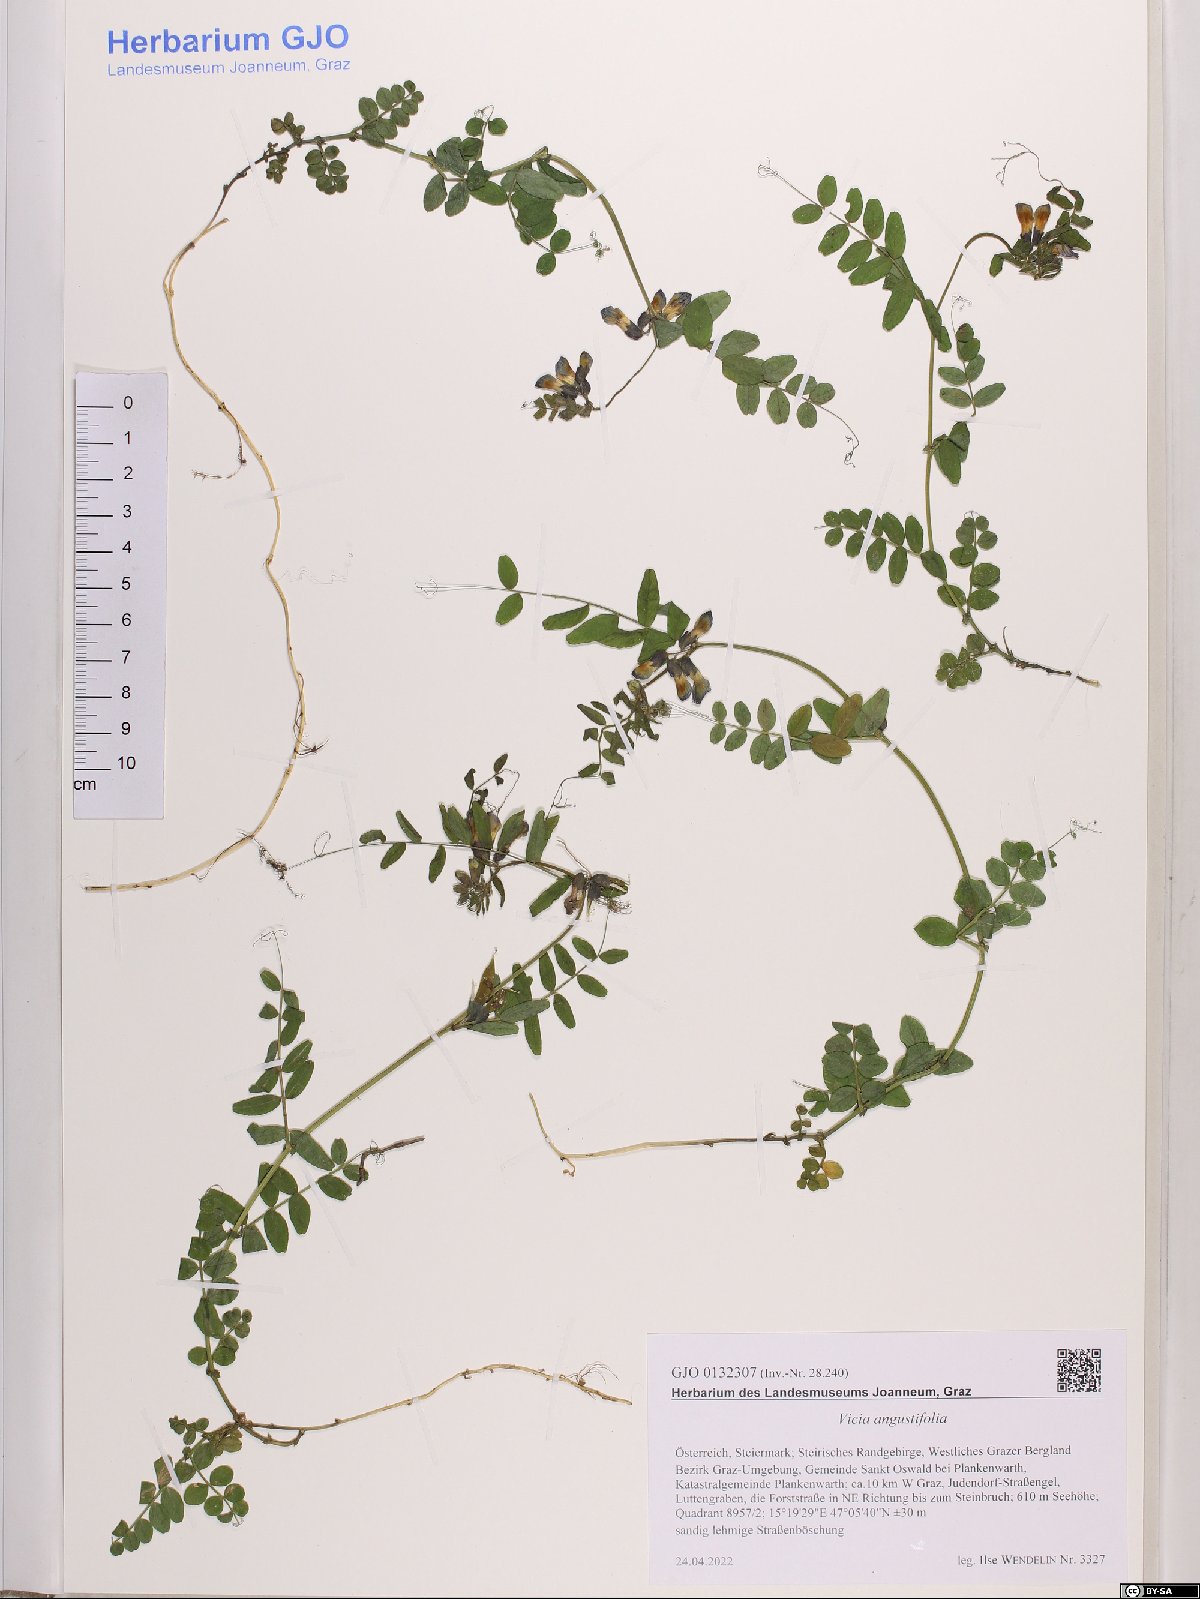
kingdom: Plantae
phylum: Tracheophyta
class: Magnoliopsida
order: Fabales
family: Fabaceae
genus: Vicia
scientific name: Vicia sativa
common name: Garden vetch
